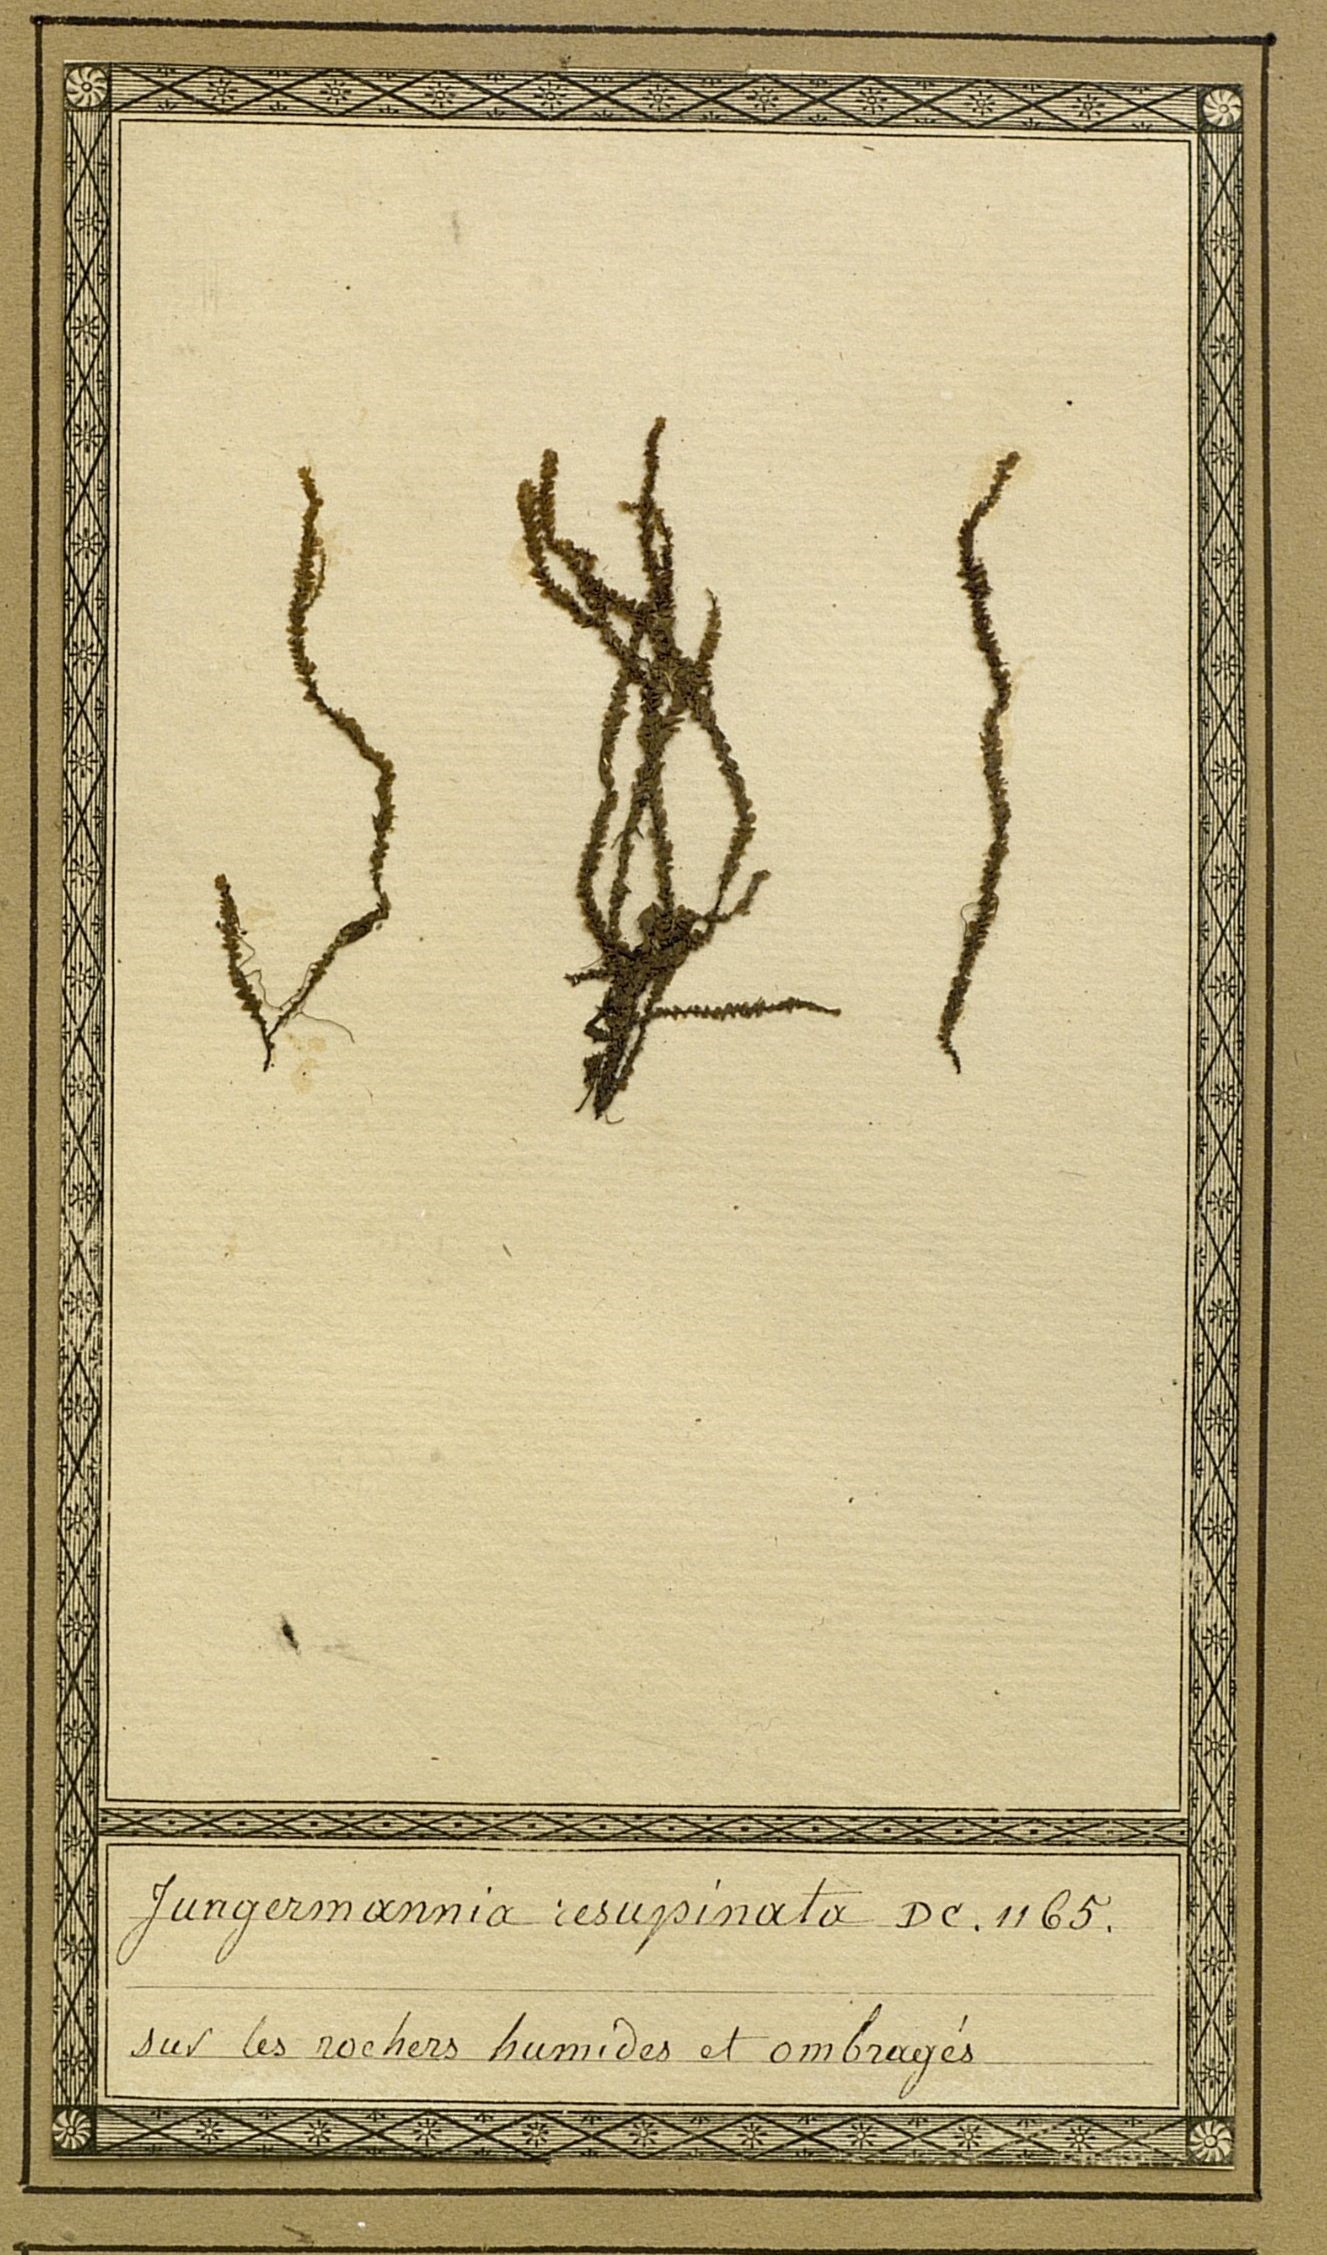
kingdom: Plantae
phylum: Marchantiophyta
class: Jungermanniopsida
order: Jungermanniales
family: Scapaniaceae
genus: Scapania
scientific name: Scapania
